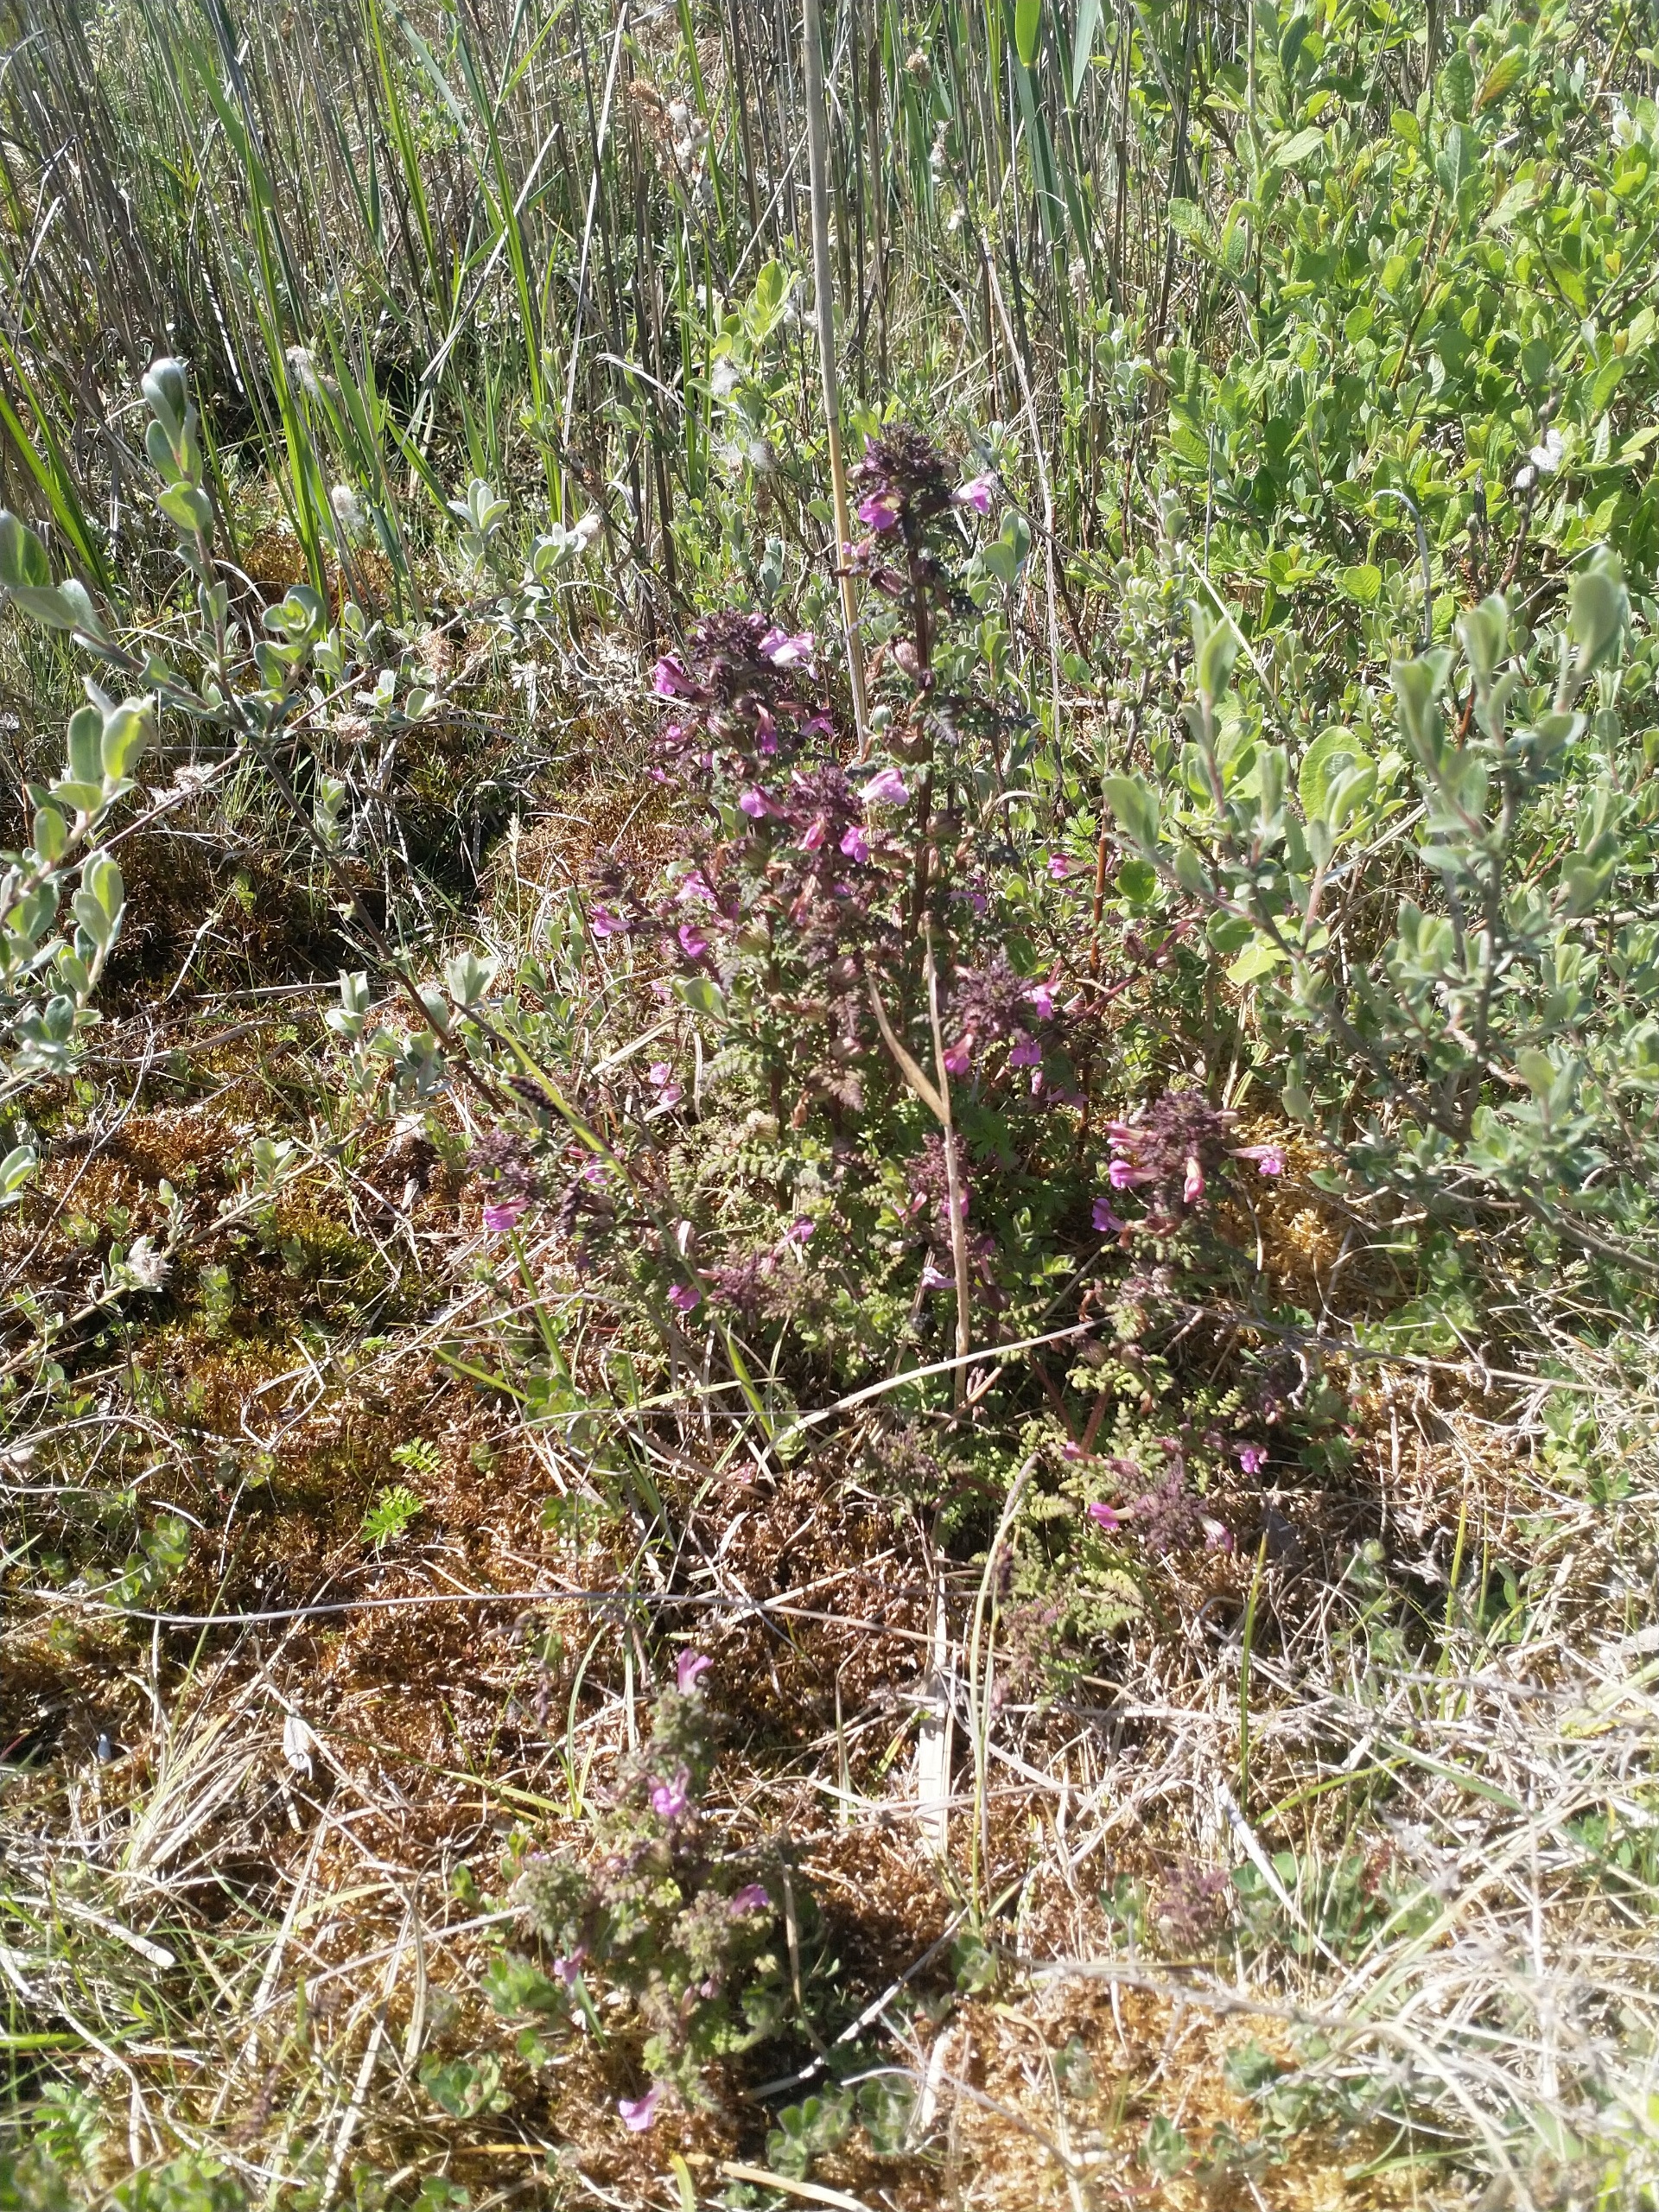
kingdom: Plantae
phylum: Tracheophyta
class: Magnoliopsida
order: Lamiales
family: Orobanchaceae
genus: Pedicularis
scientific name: Pedicularis palustris
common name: Eng-troldurt
